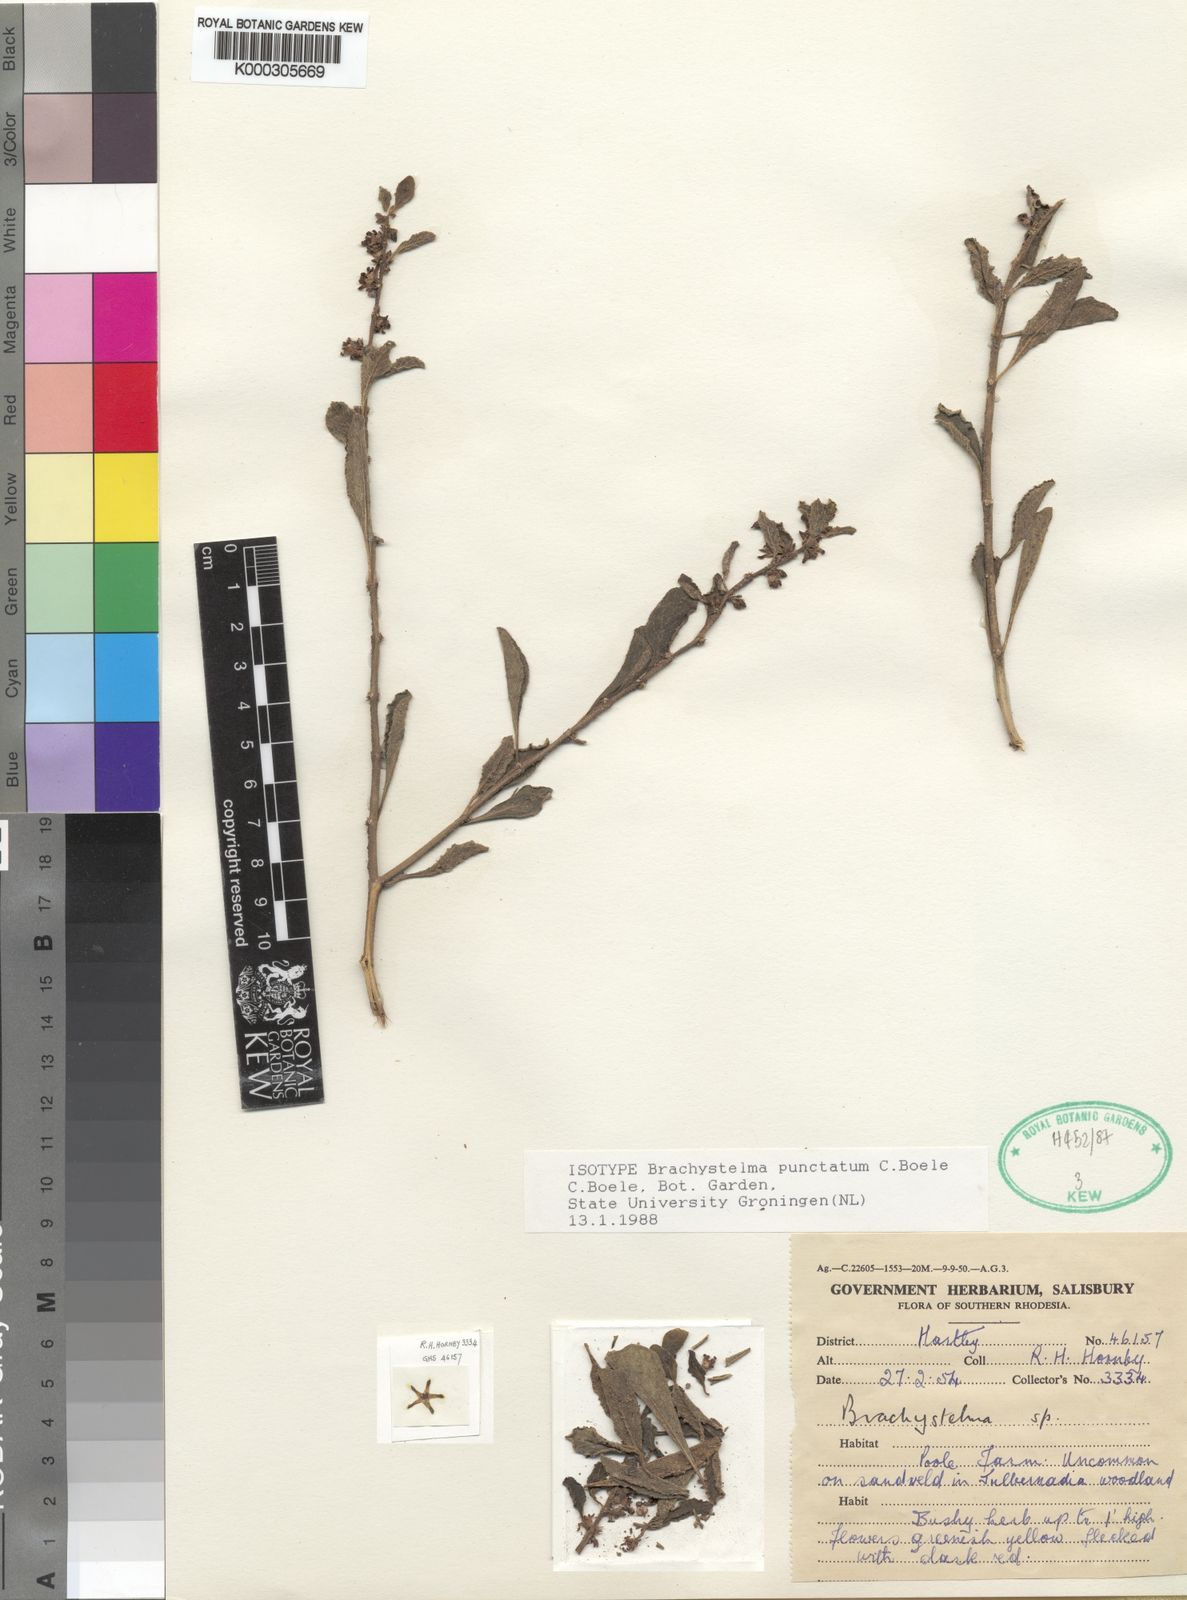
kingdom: Plantae
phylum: Tracheophyta
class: Magnoliopsida
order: Gentianales
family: Apocynaceae
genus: Ceropegia
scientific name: Ceropegia punctifera
